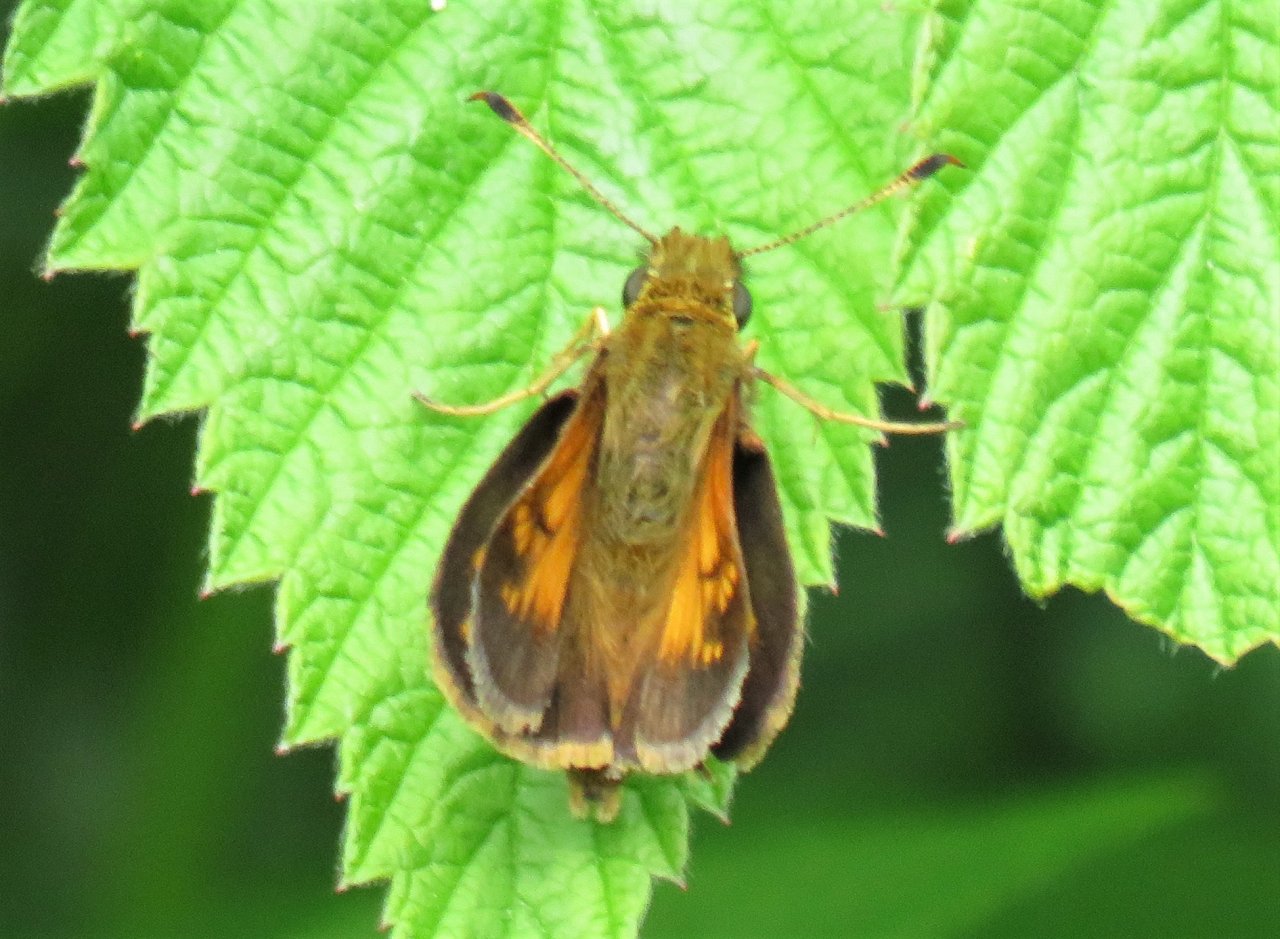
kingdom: Animalia
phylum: Arthropoda
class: Insecta
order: Lepidoptera
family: Hesperiidae
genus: Lon
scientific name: Lon hobomok
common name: Hobomok Skipper
